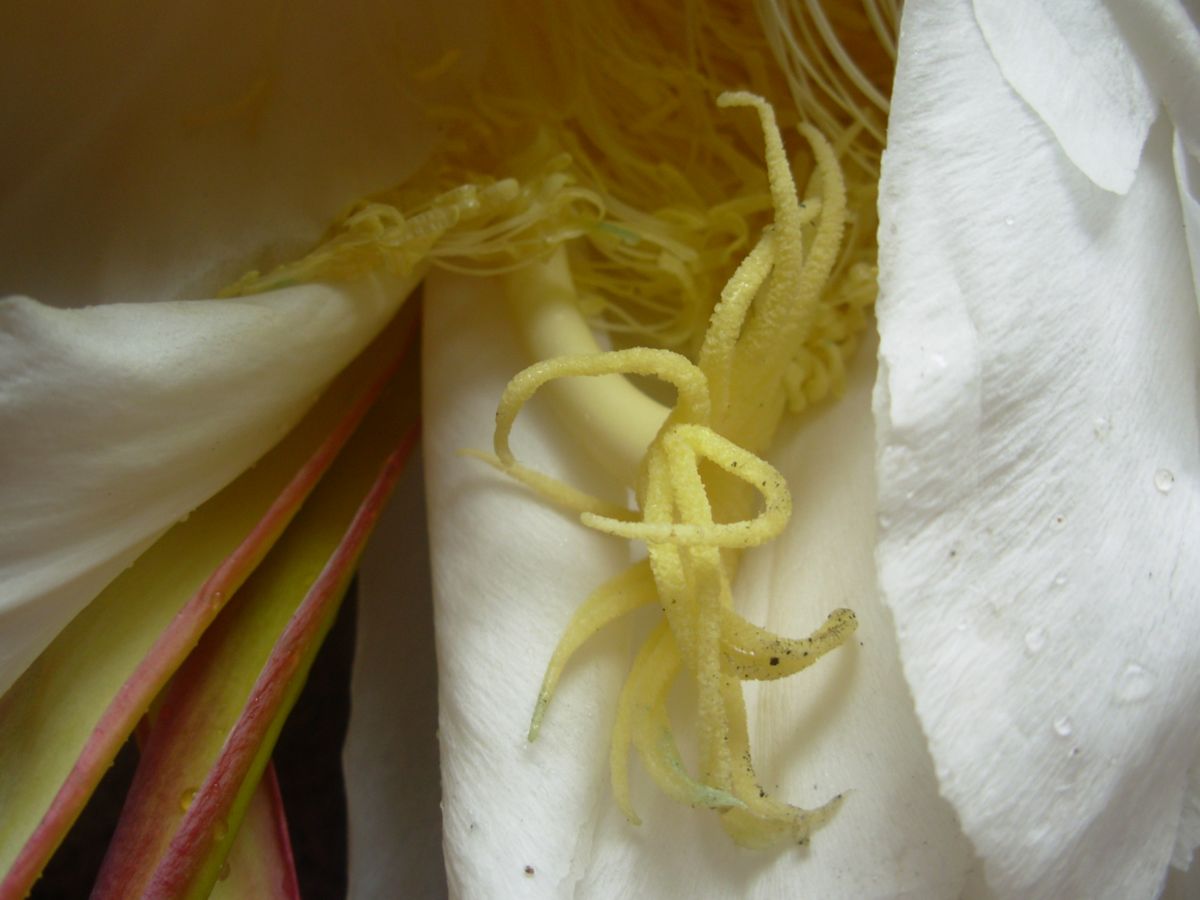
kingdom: Plantae
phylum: Tracheophyta
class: Magnoliopsida
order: Caryophyllales
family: Cactaceae
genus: Selenicereus
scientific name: Selenicereus undatus
